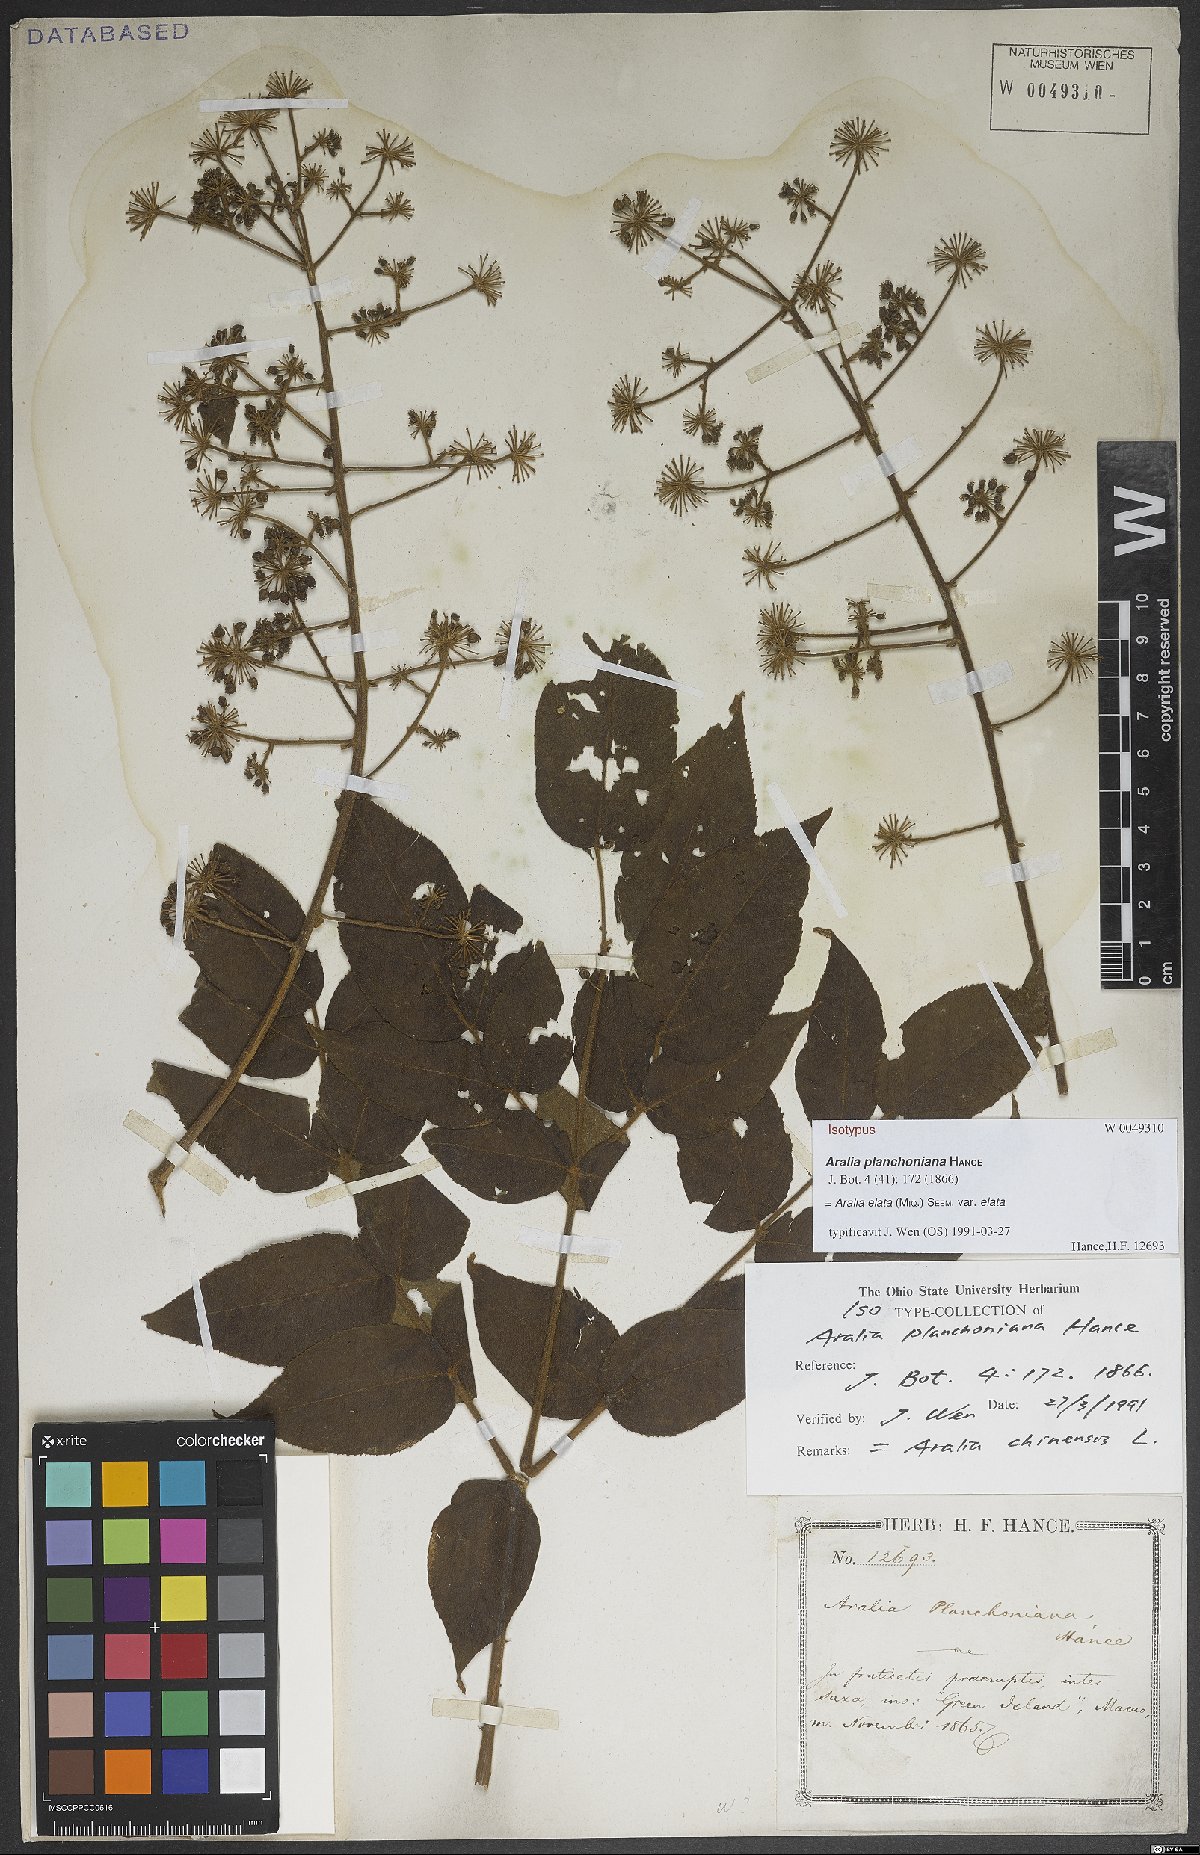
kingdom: Plantae
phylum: Tracheophyta
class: Magnoliopsida
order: Apiales
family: Araliaceae
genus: Aralia
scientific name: Aralia elata
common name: Japanese angelica-tree
